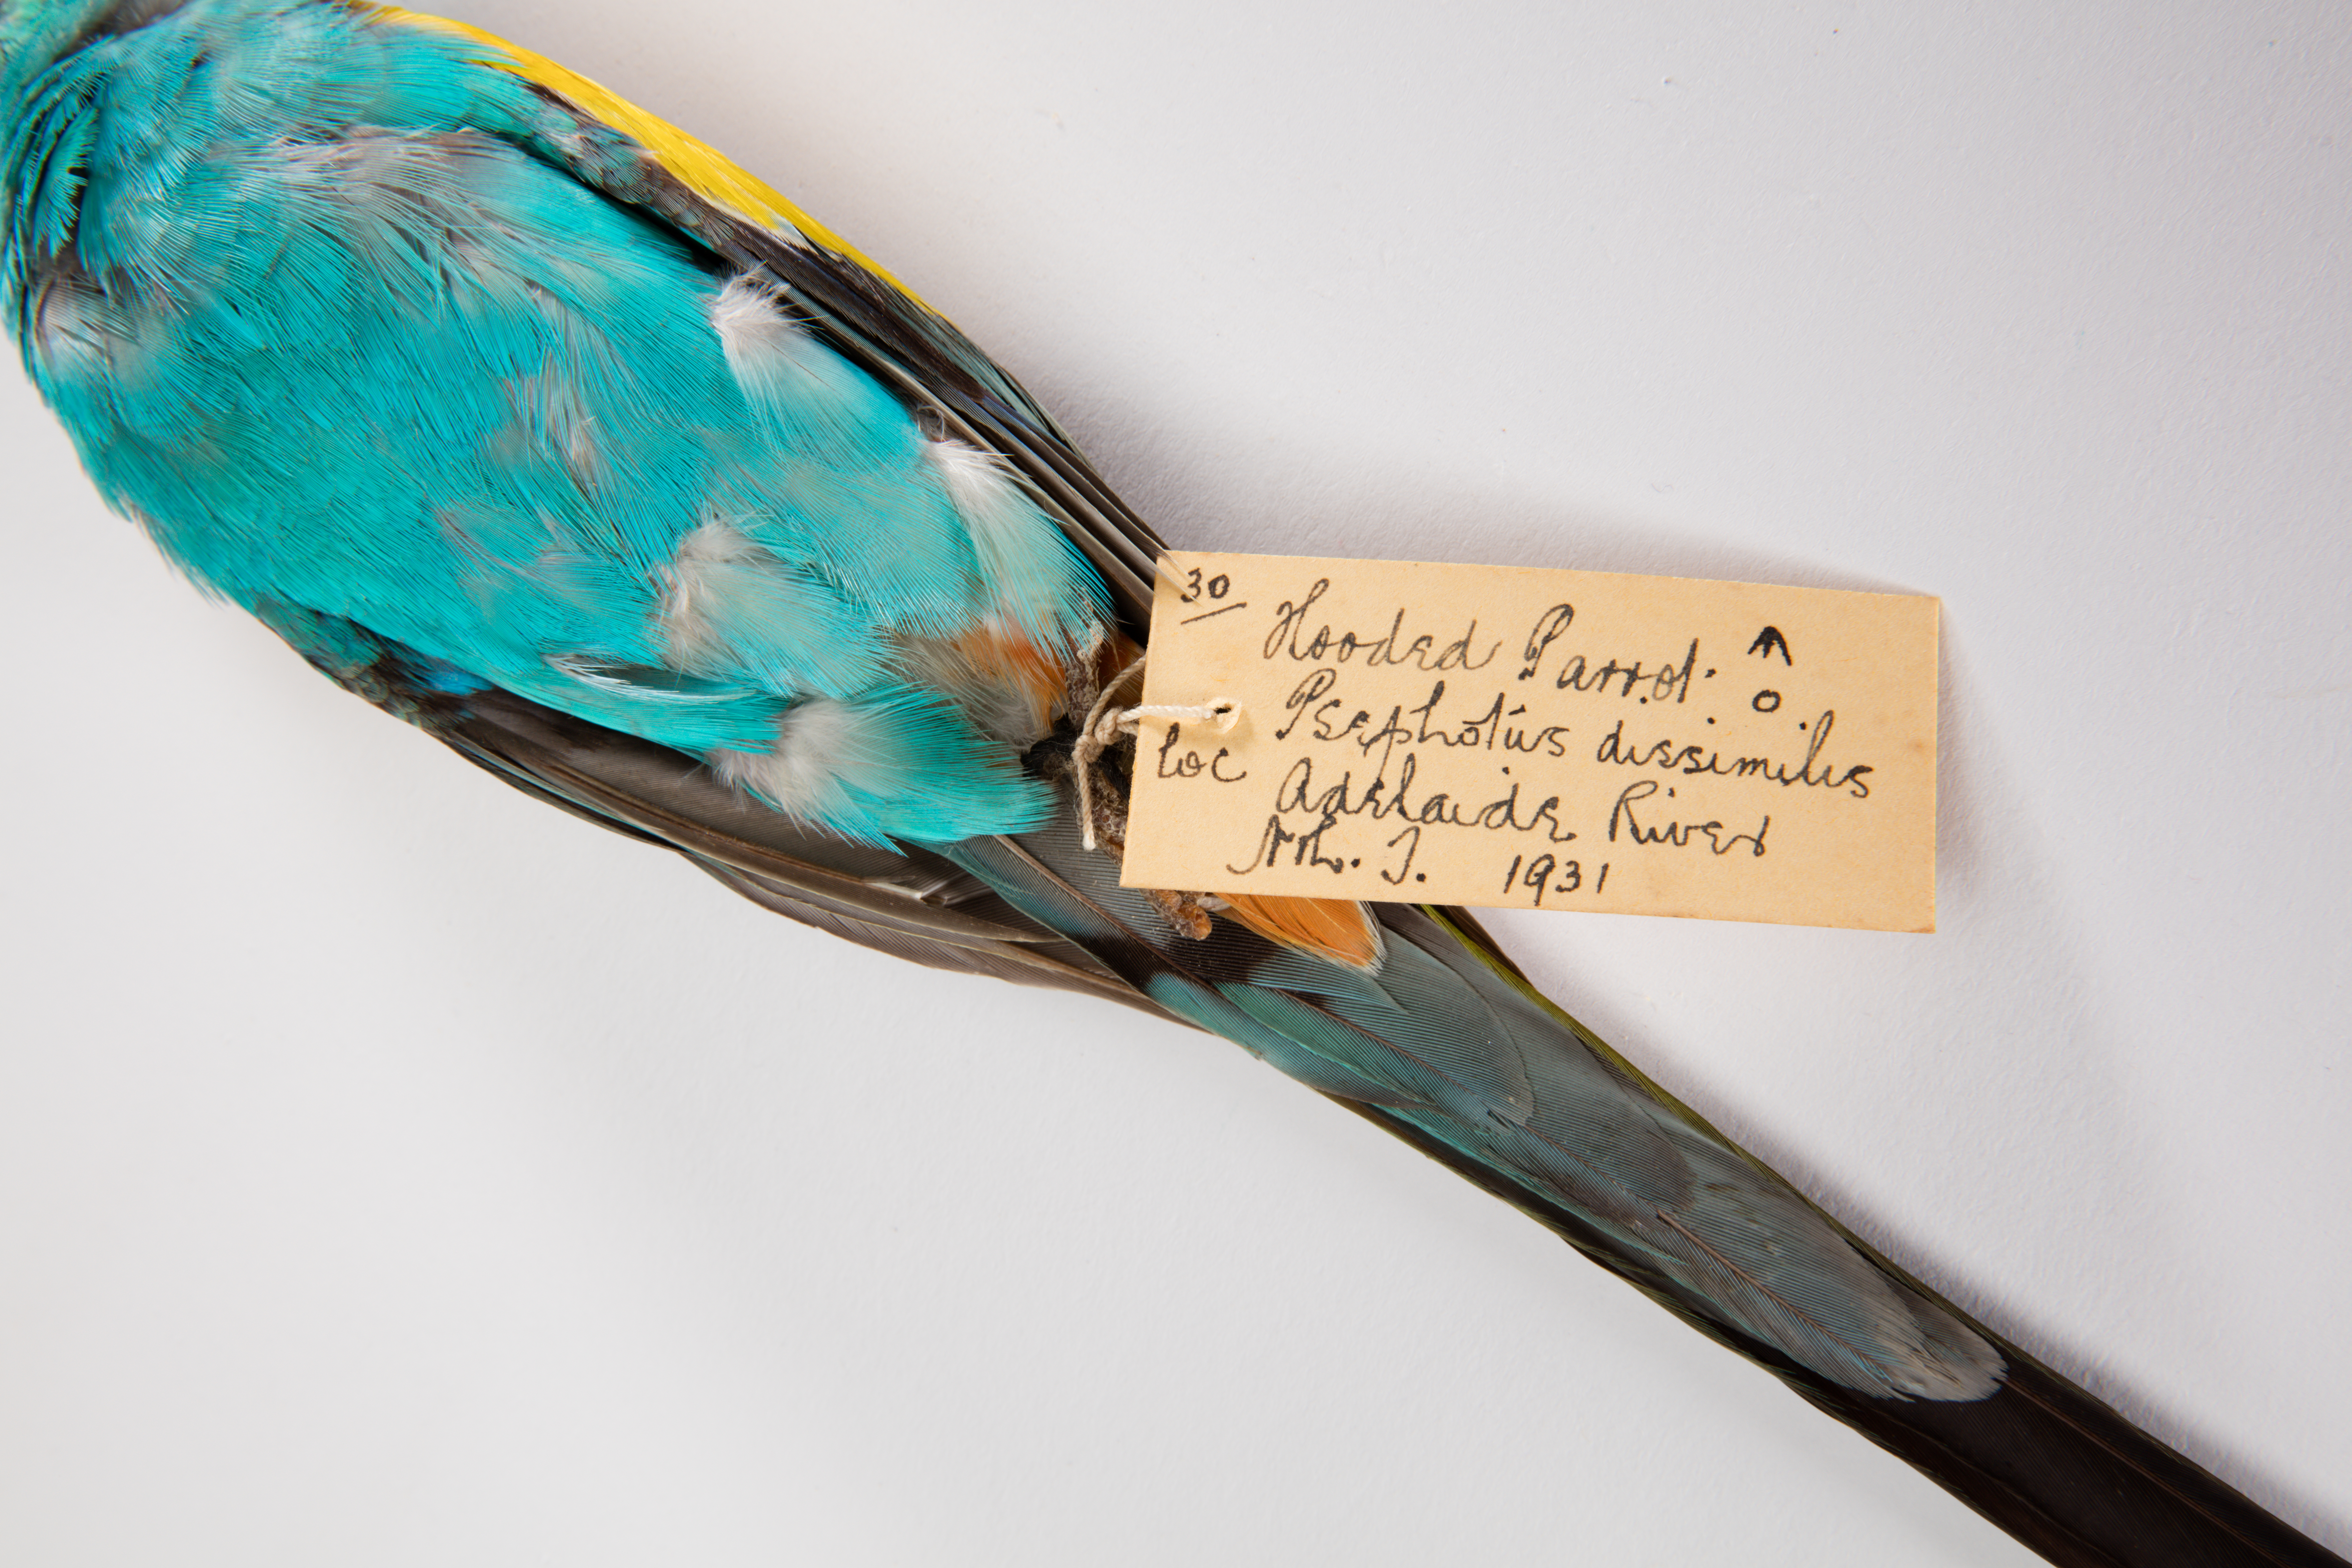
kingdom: Animalia
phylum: Chordata
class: Aves
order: Psittaciformes
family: Psittacidae
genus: Psephotus
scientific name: Psephotus dissimilis
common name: Hooded parrot
